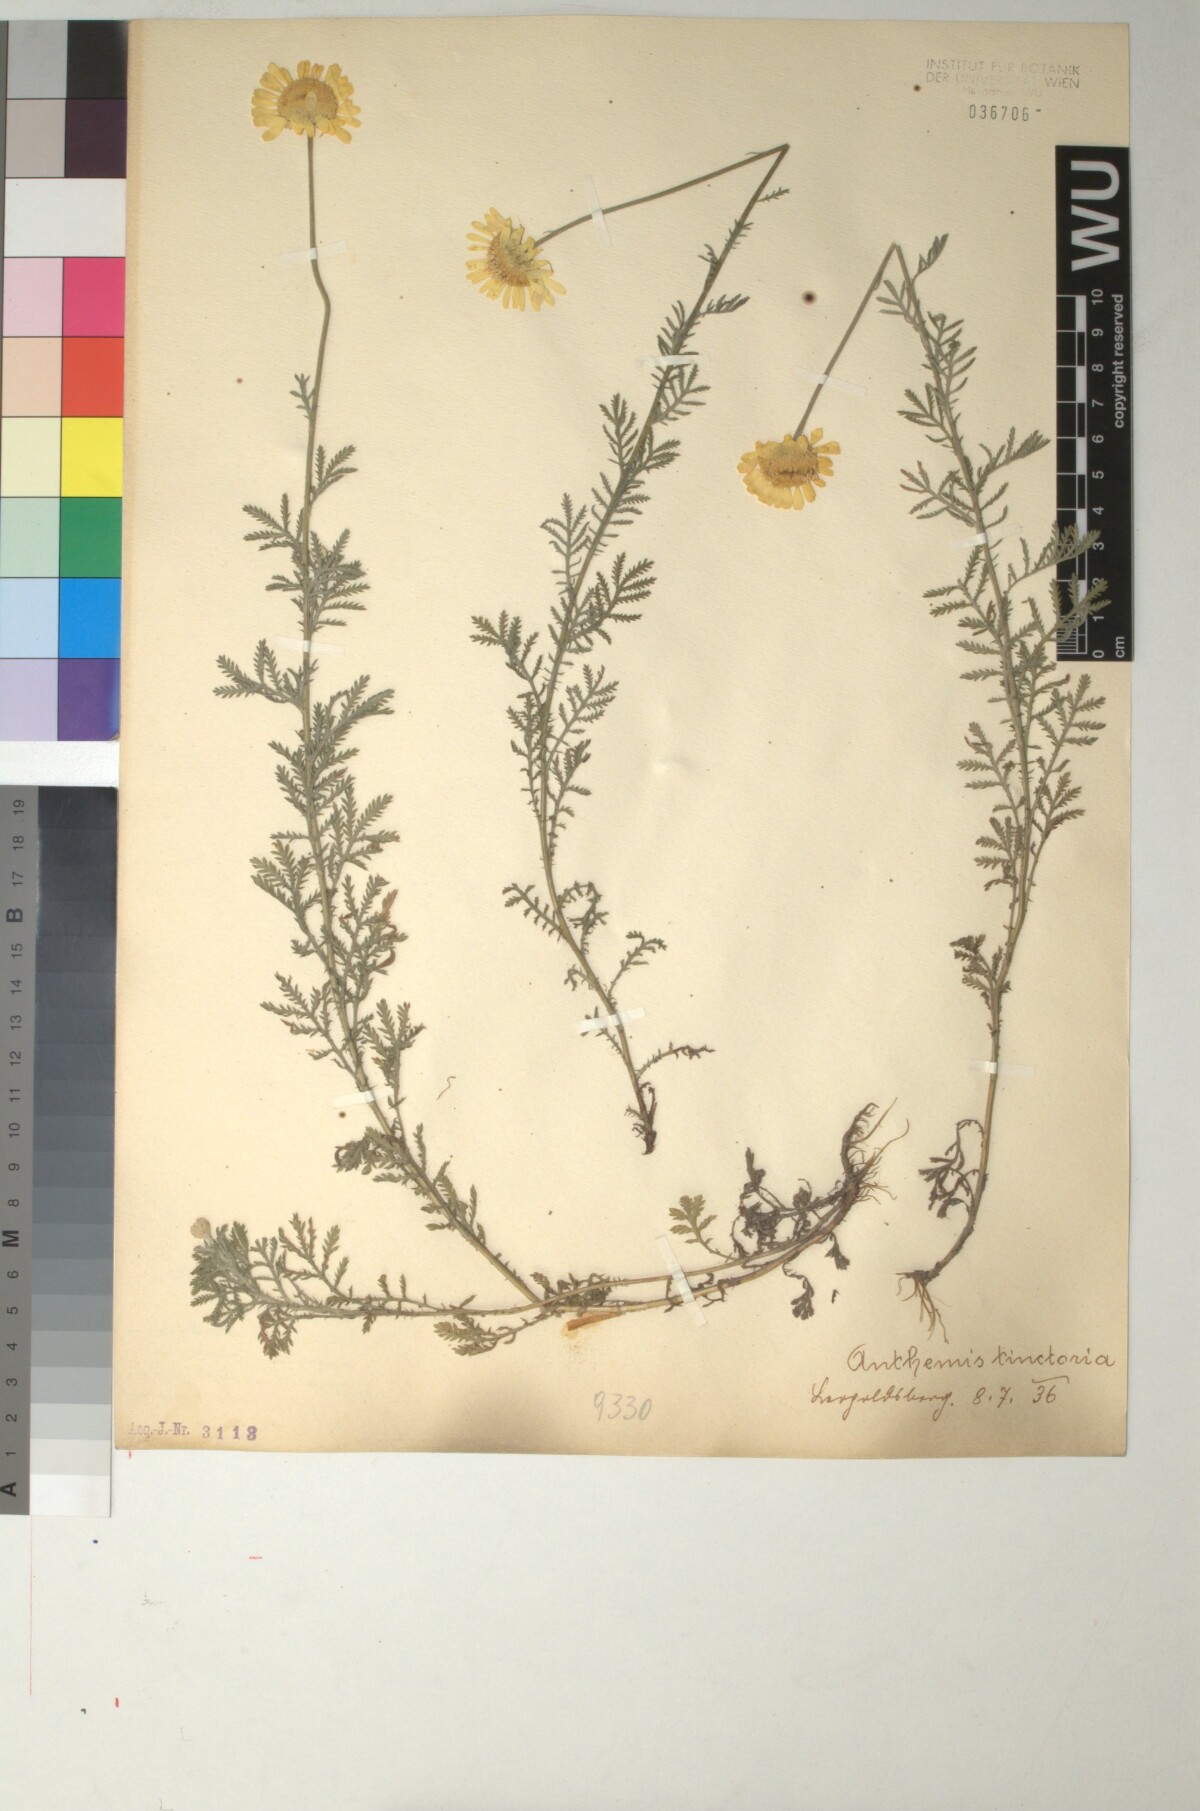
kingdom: Plantae
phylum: Tracheophyta
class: Magnoliopsida
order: Asterales
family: Asteraceae
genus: Cota
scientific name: Cota tinctoria
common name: Golden chamomile
